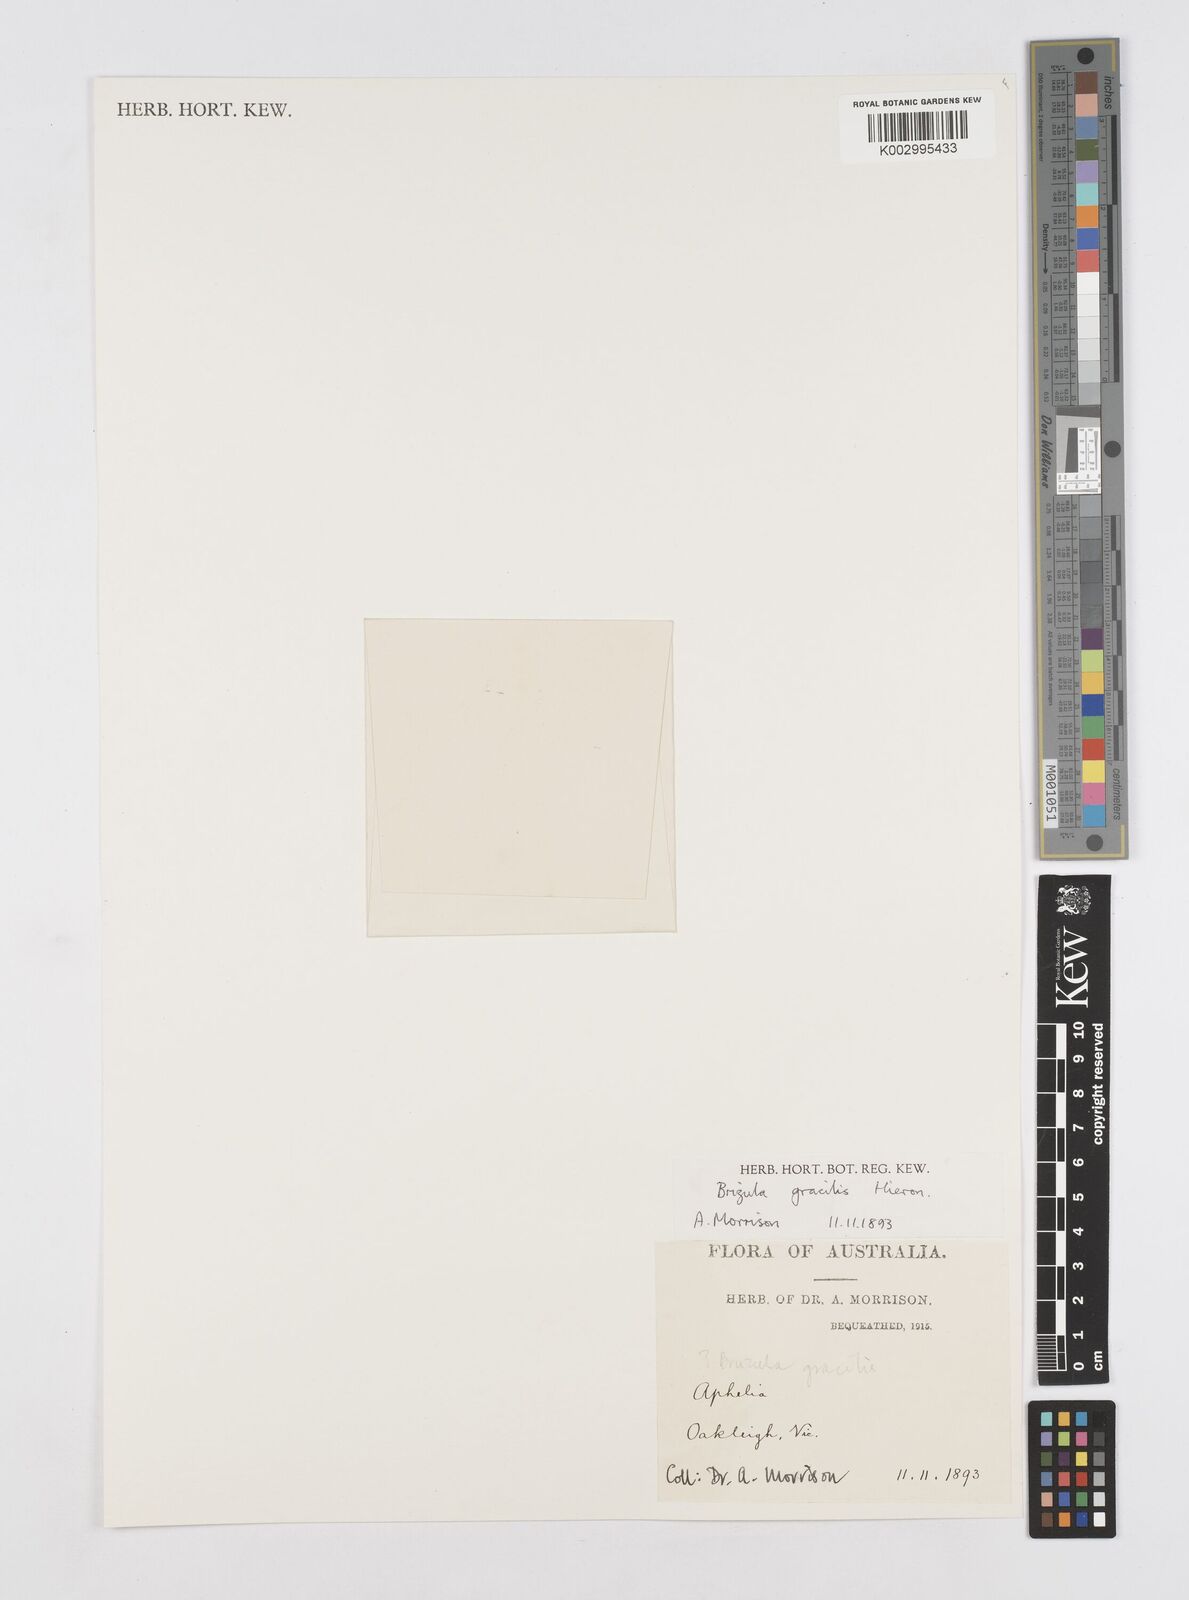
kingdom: Plantae
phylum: Tracheophyta
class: Liliopsida
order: Poales
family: Restionaceae
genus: Aphelia
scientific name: Aphelia gracilis
